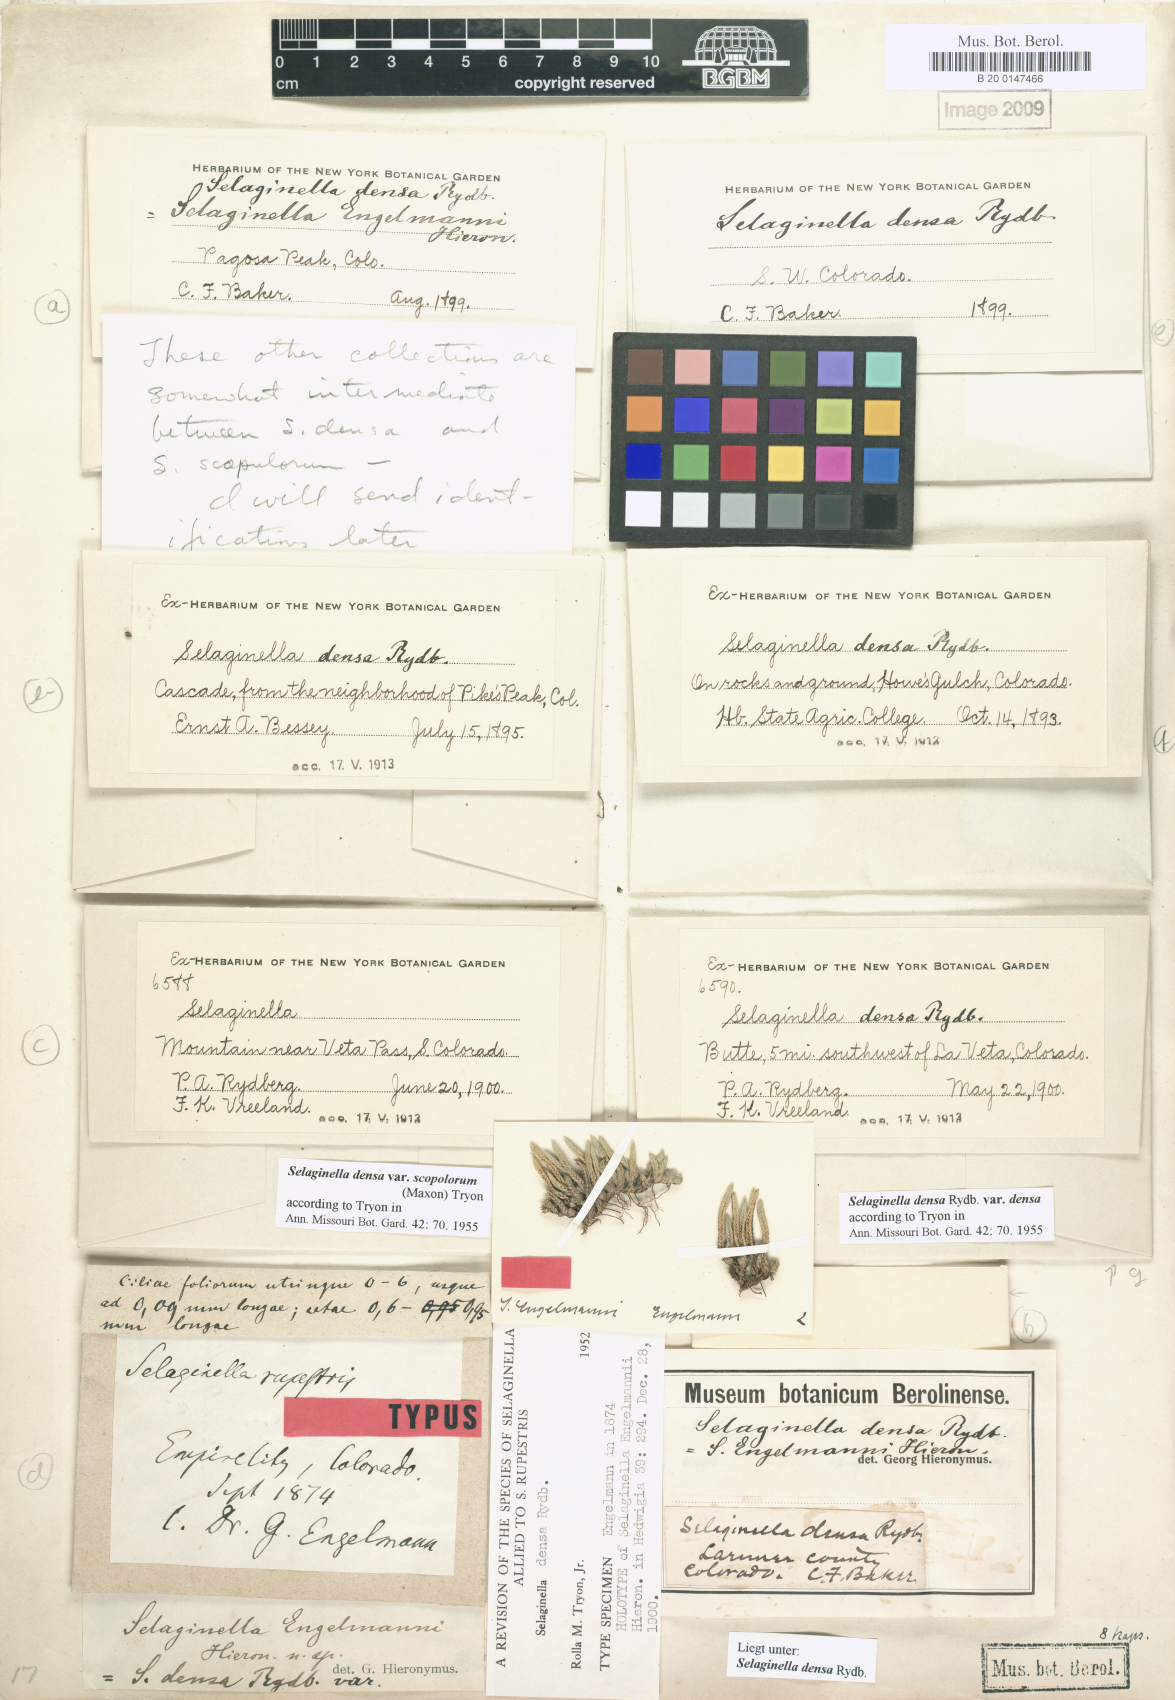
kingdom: Plantae
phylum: Tracheophyta
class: Lycopodiopsida
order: Selaginellales
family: Selaginellaceae
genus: Selaginella
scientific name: Selaginella densa
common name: Mountain spike-moss
